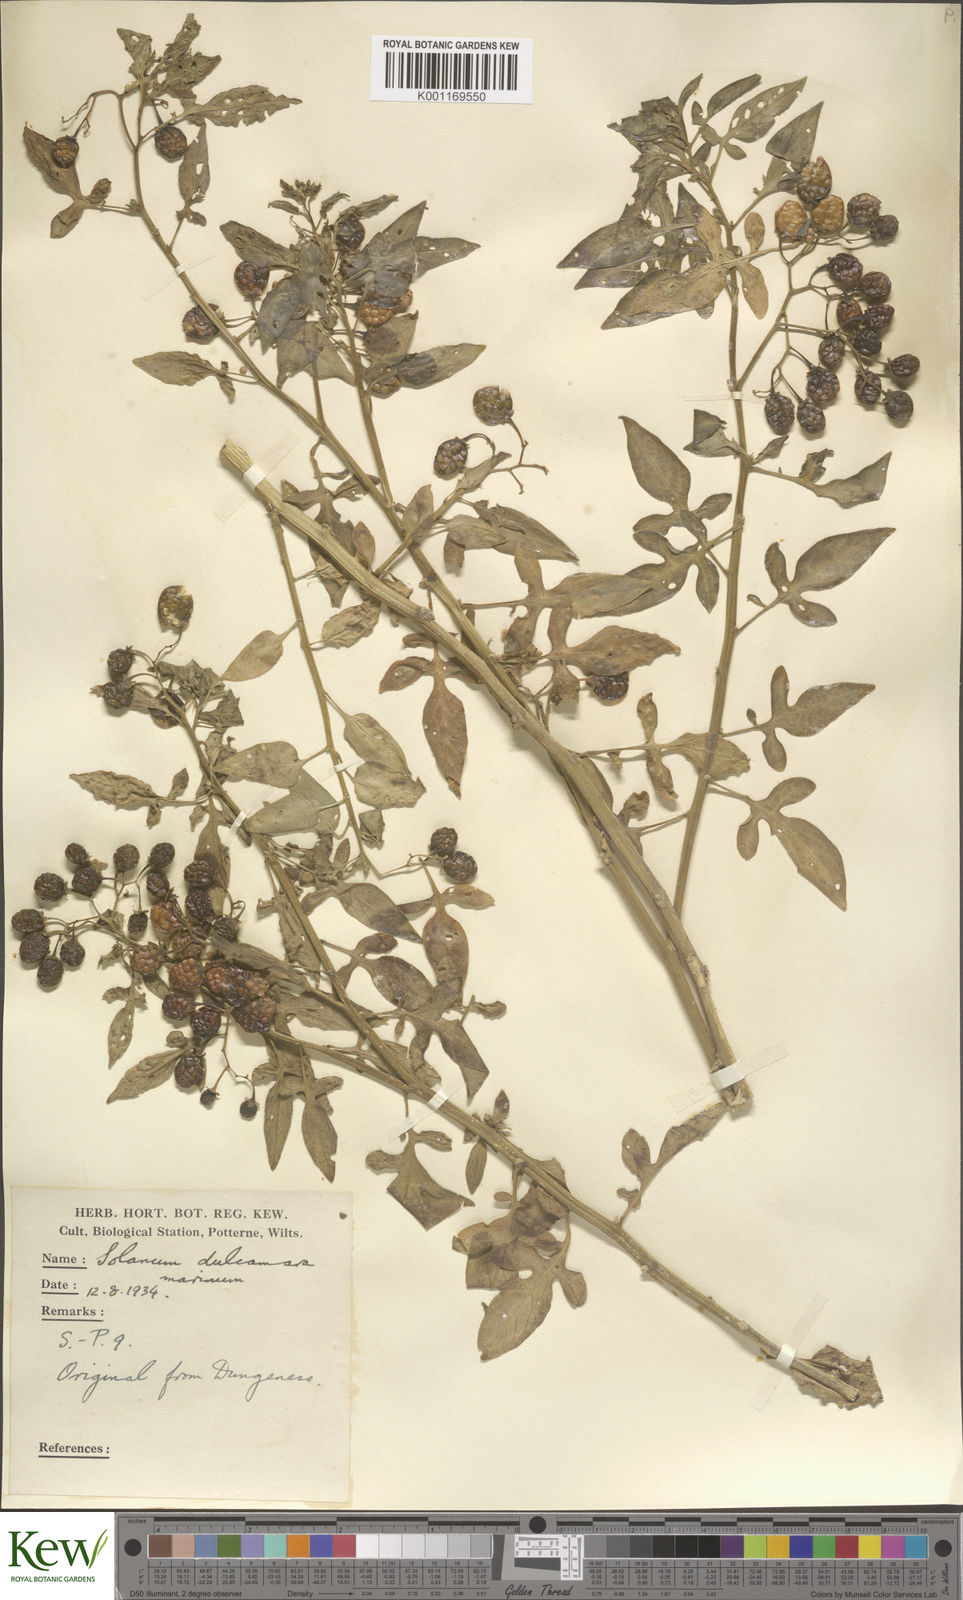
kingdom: Plantae
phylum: Tracheophyta
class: Magnoliopsida
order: Solanales
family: Solanaceae
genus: Solanum
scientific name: Solanum dulcamara
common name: Climbing nightshade
